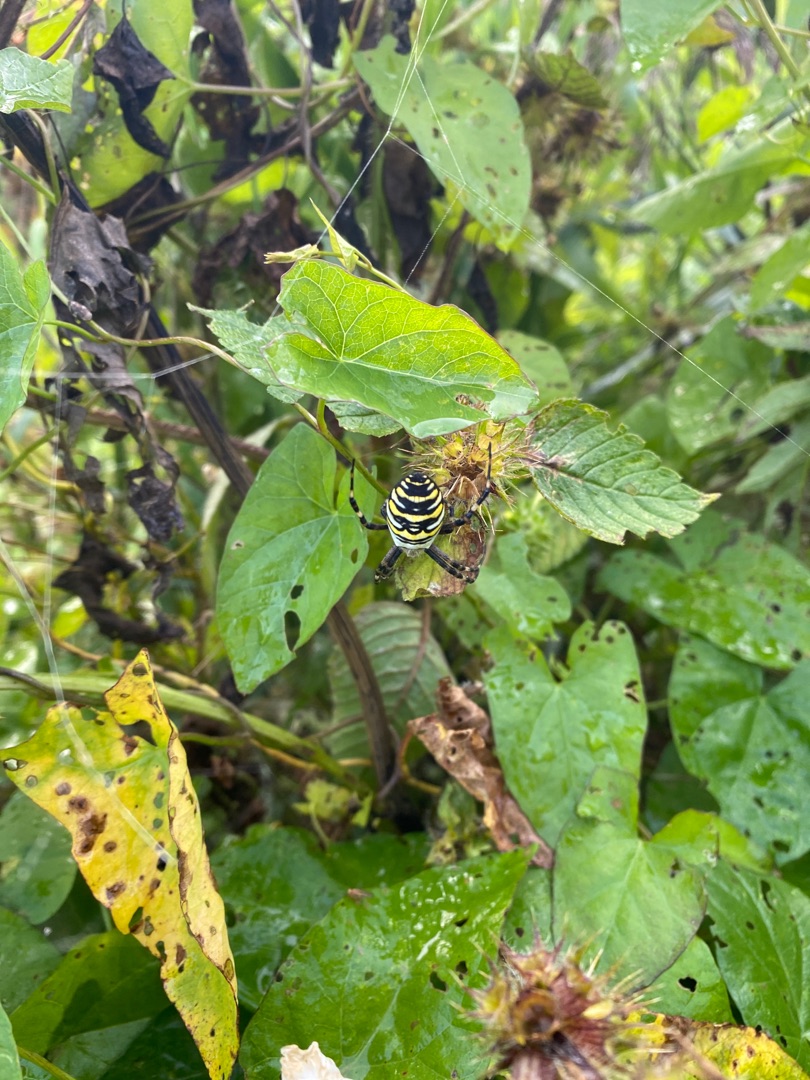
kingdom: Animalia
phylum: Arthropoda
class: Arachnida
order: Araneae
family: Araneidae
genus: Argiope
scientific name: Argiope bruennichi
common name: Hvepseedderkop
